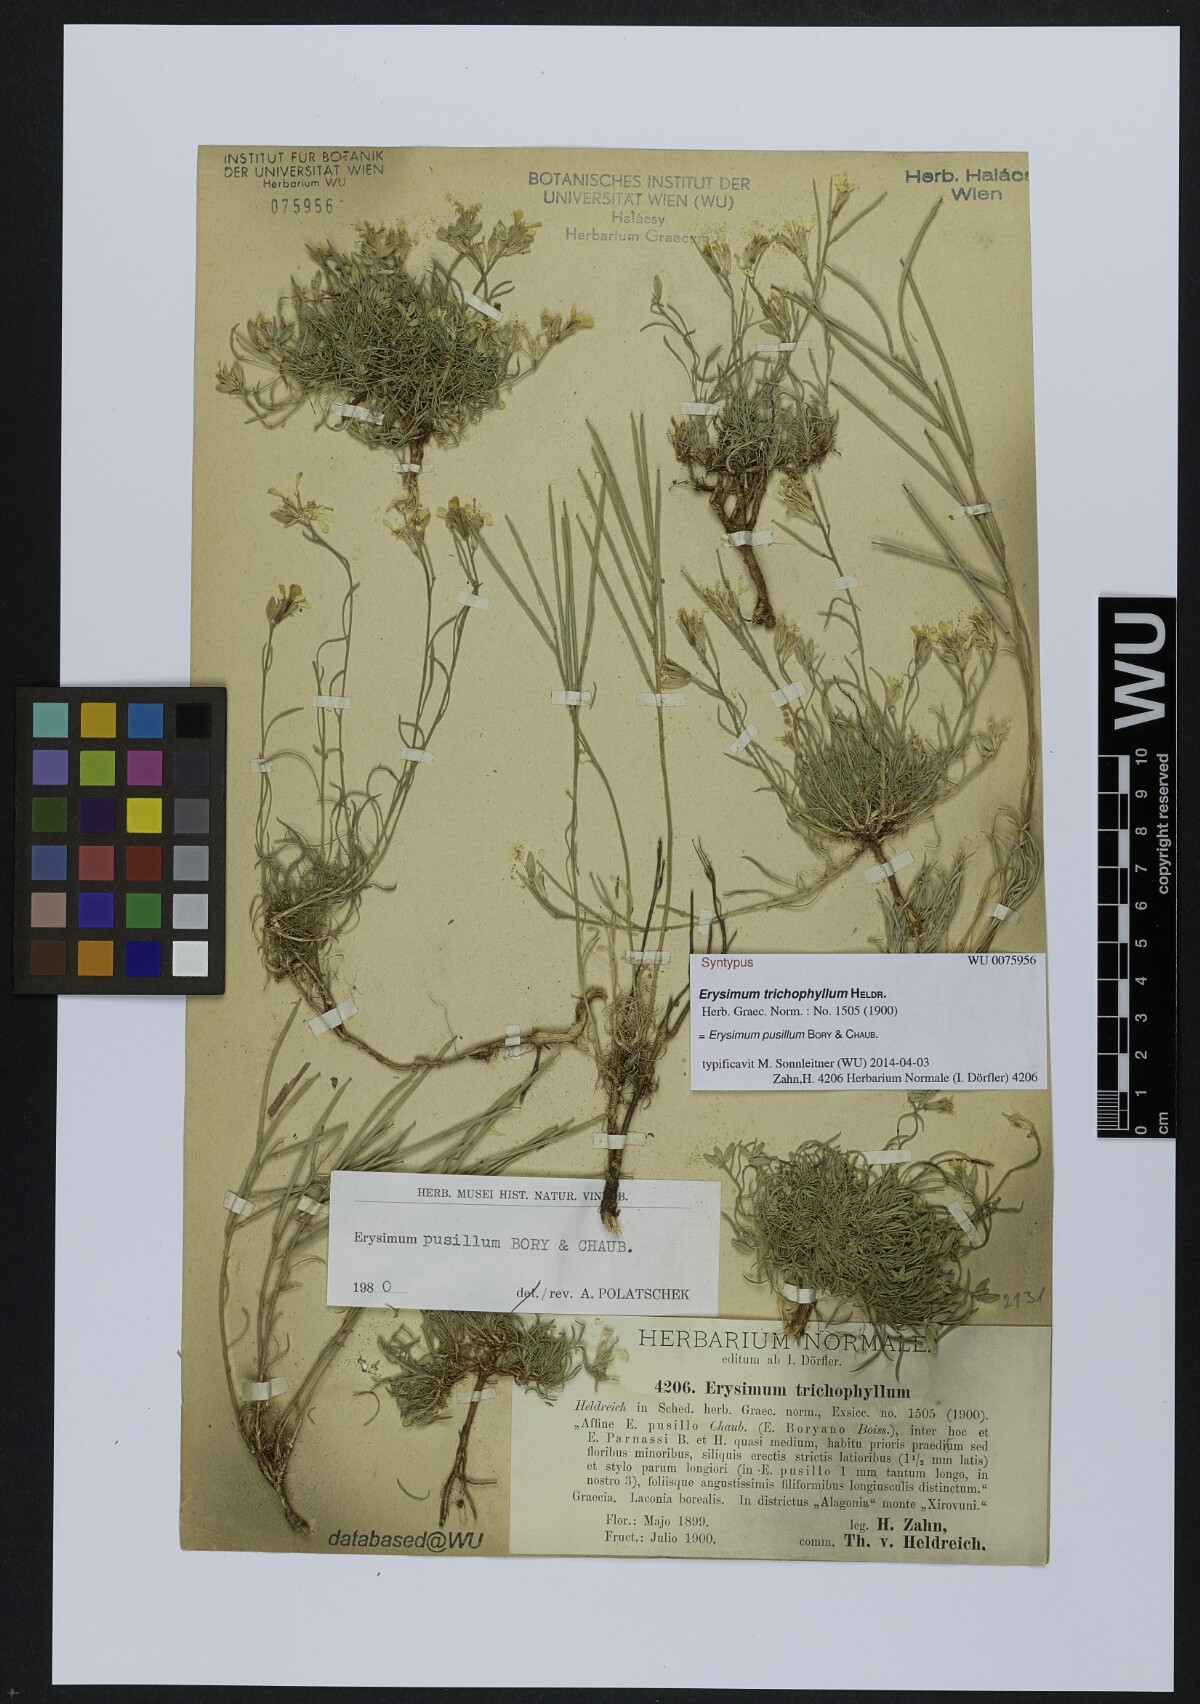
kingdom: Plantae
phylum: Tracheophyta
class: Magnoliopsida
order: Brassicales
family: Brassicaceae
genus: Erysimum
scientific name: Erysimum pusillum
